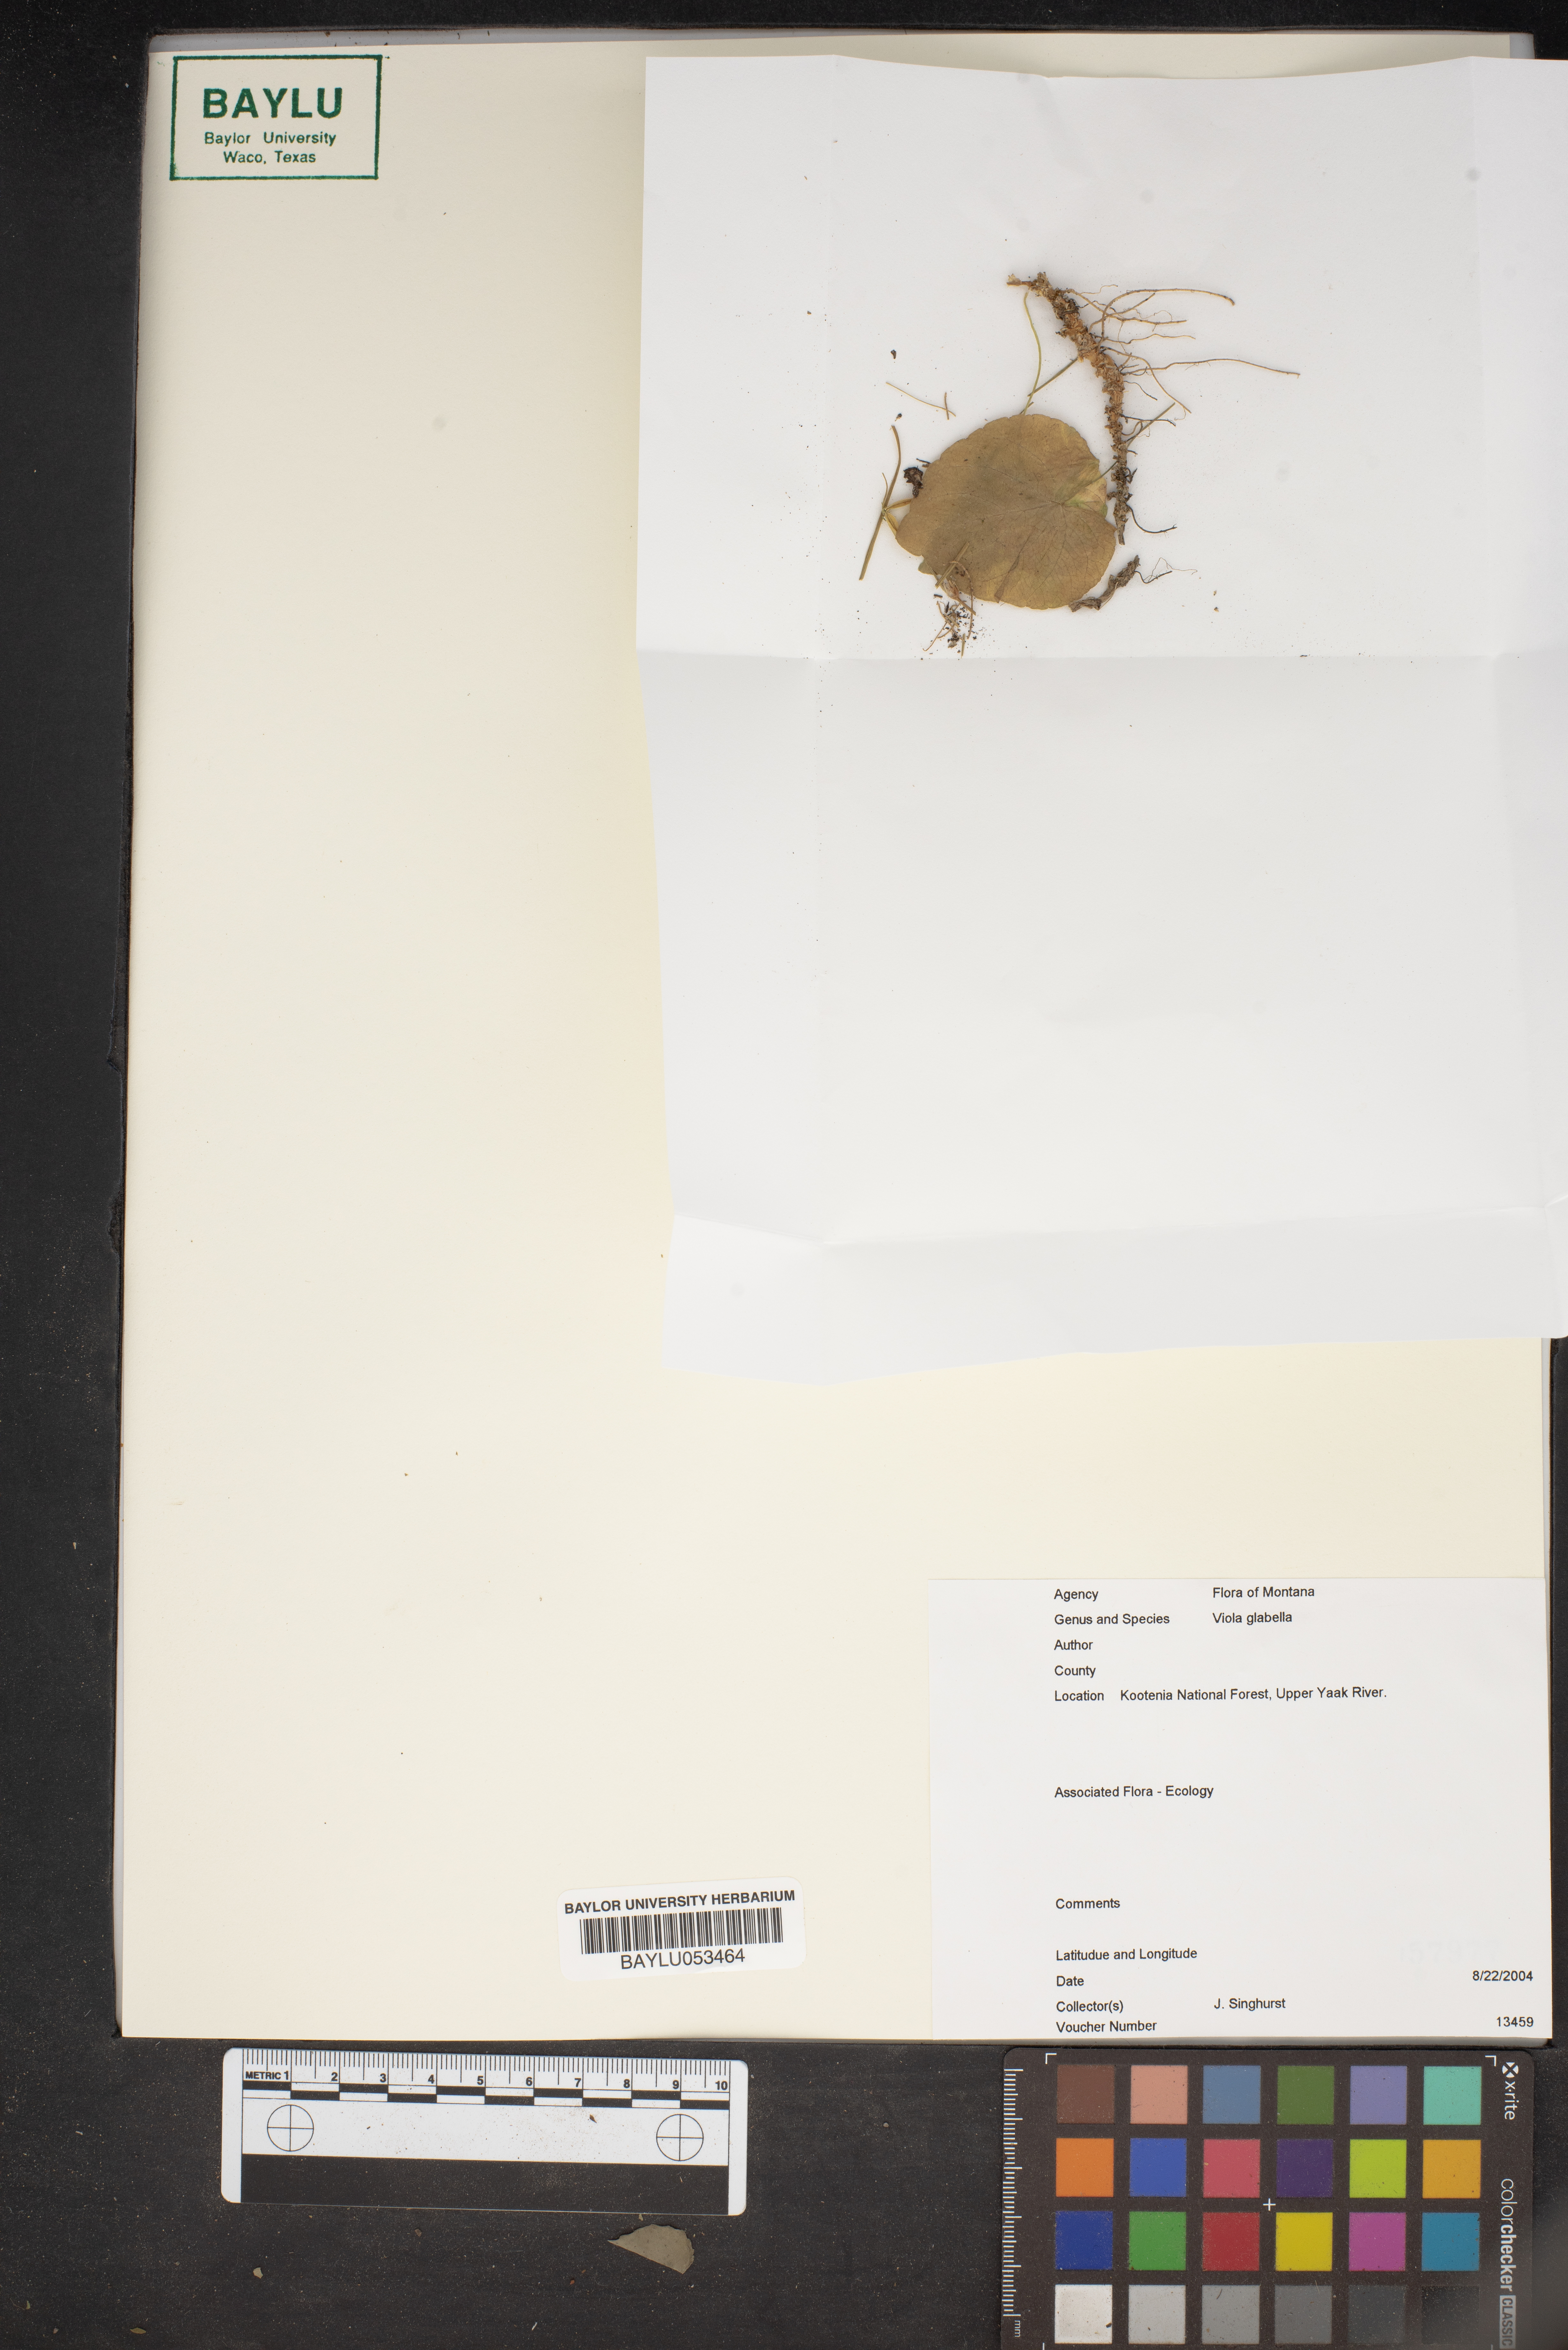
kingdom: Plantae
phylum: Tracheophyta
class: Magnoliopsida
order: Malpighiales
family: Violaceae
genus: Viola
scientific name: Viola glabella
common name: Stream violet
